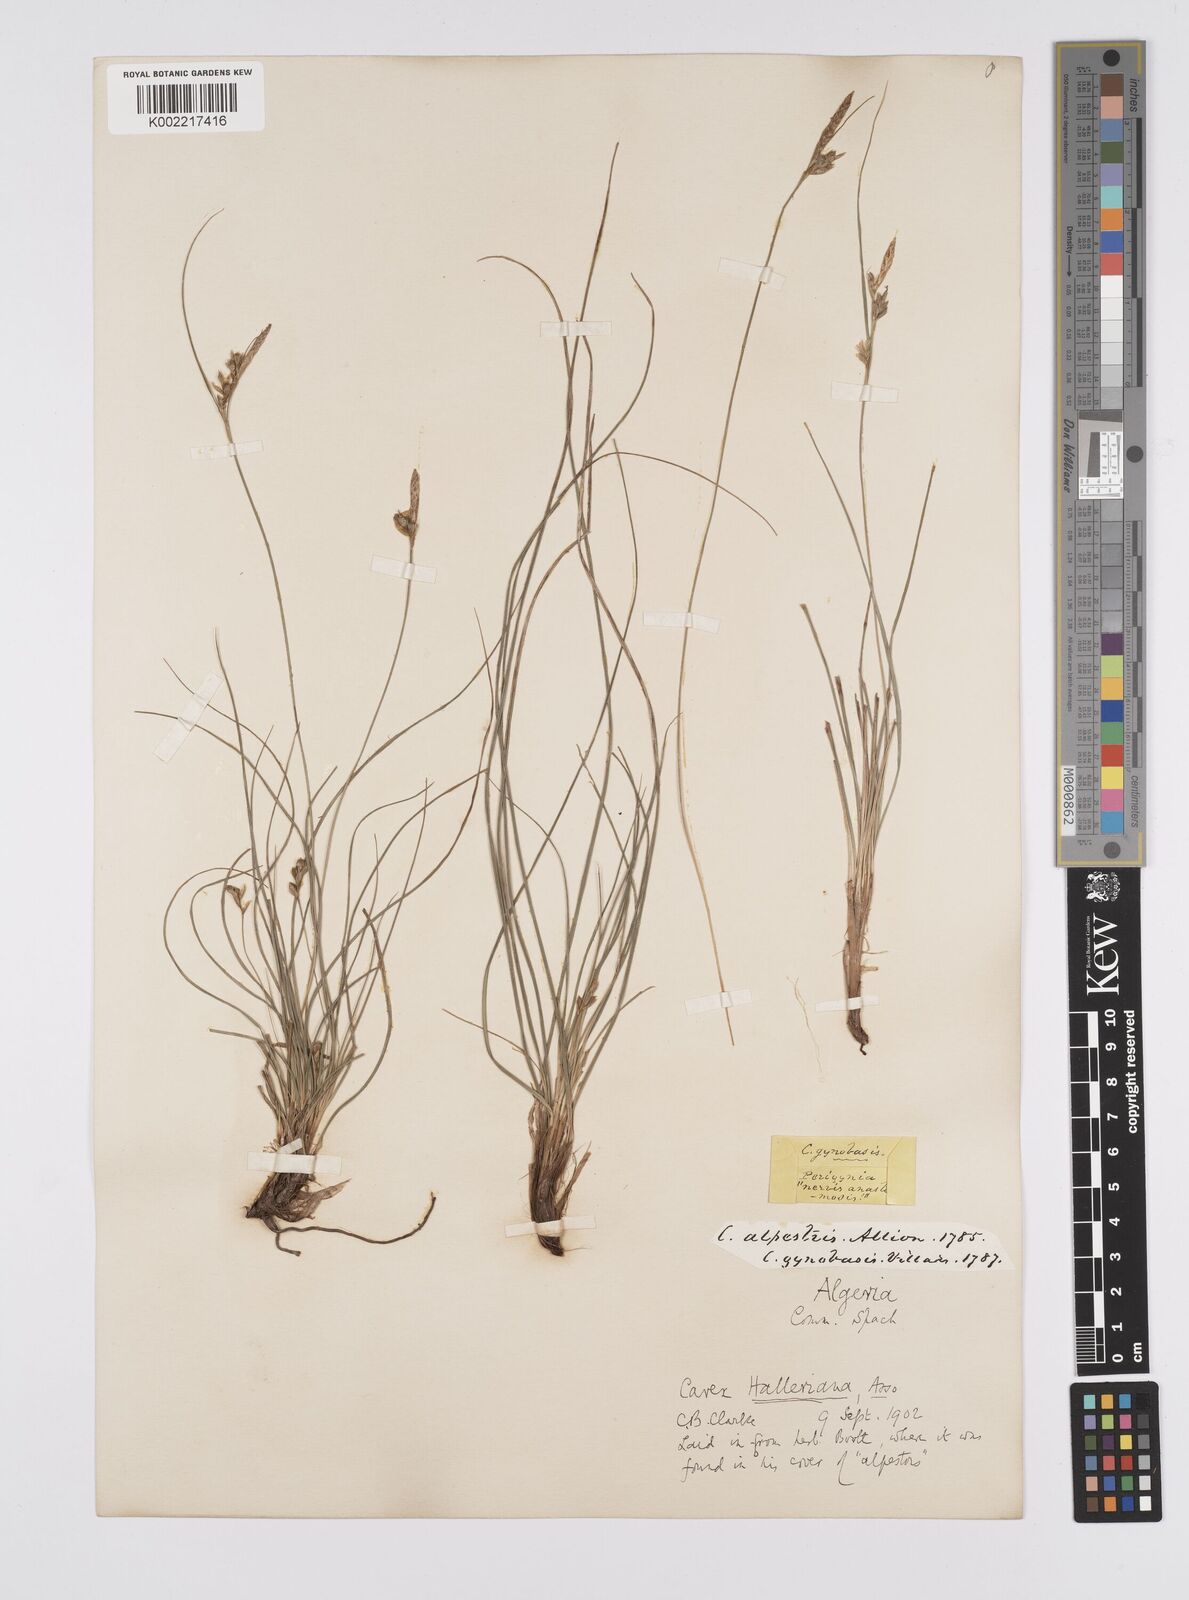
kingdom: Plantae
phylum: Tracheophyta
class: Liliopsida
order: Poales
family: Cyperaceae
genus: Carex
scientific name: Carex halleriana
